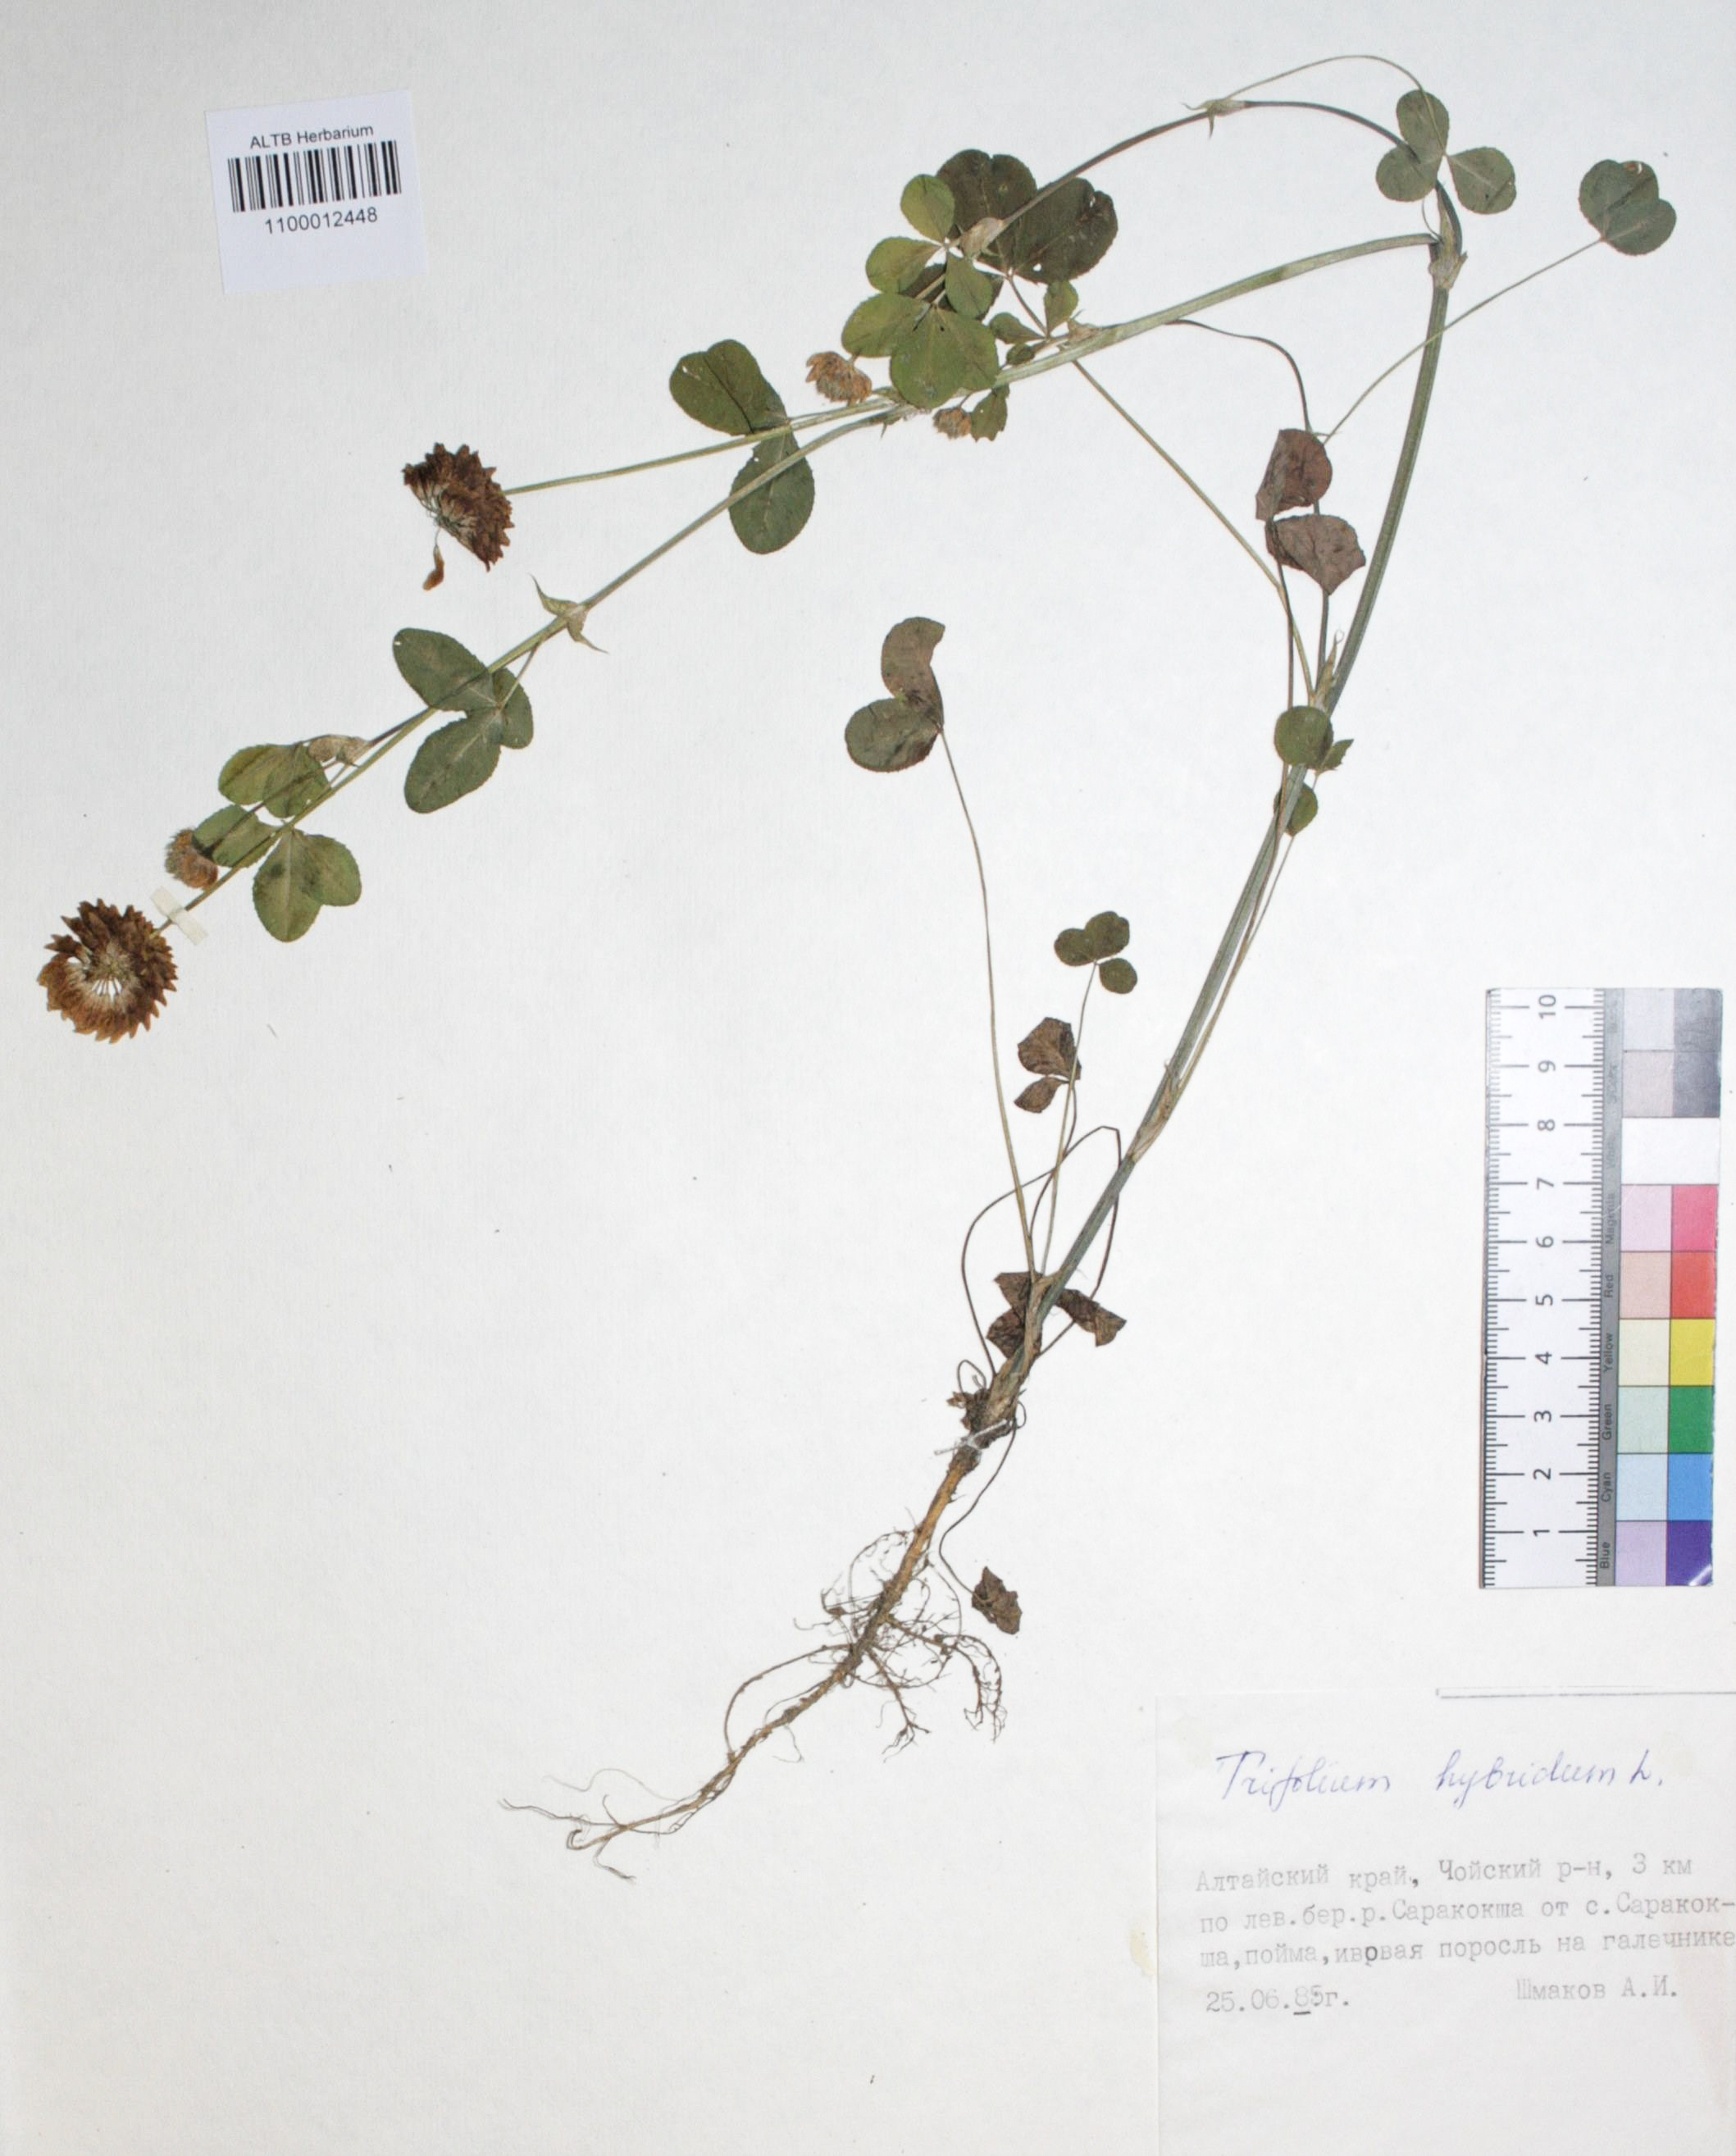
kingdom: Plantae
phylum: Tracheophyta
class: Magnoliopsida
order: Fabales
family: Fabaceae
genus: Trifolium
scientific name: Trifolium hybridum
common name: Alsike clover
